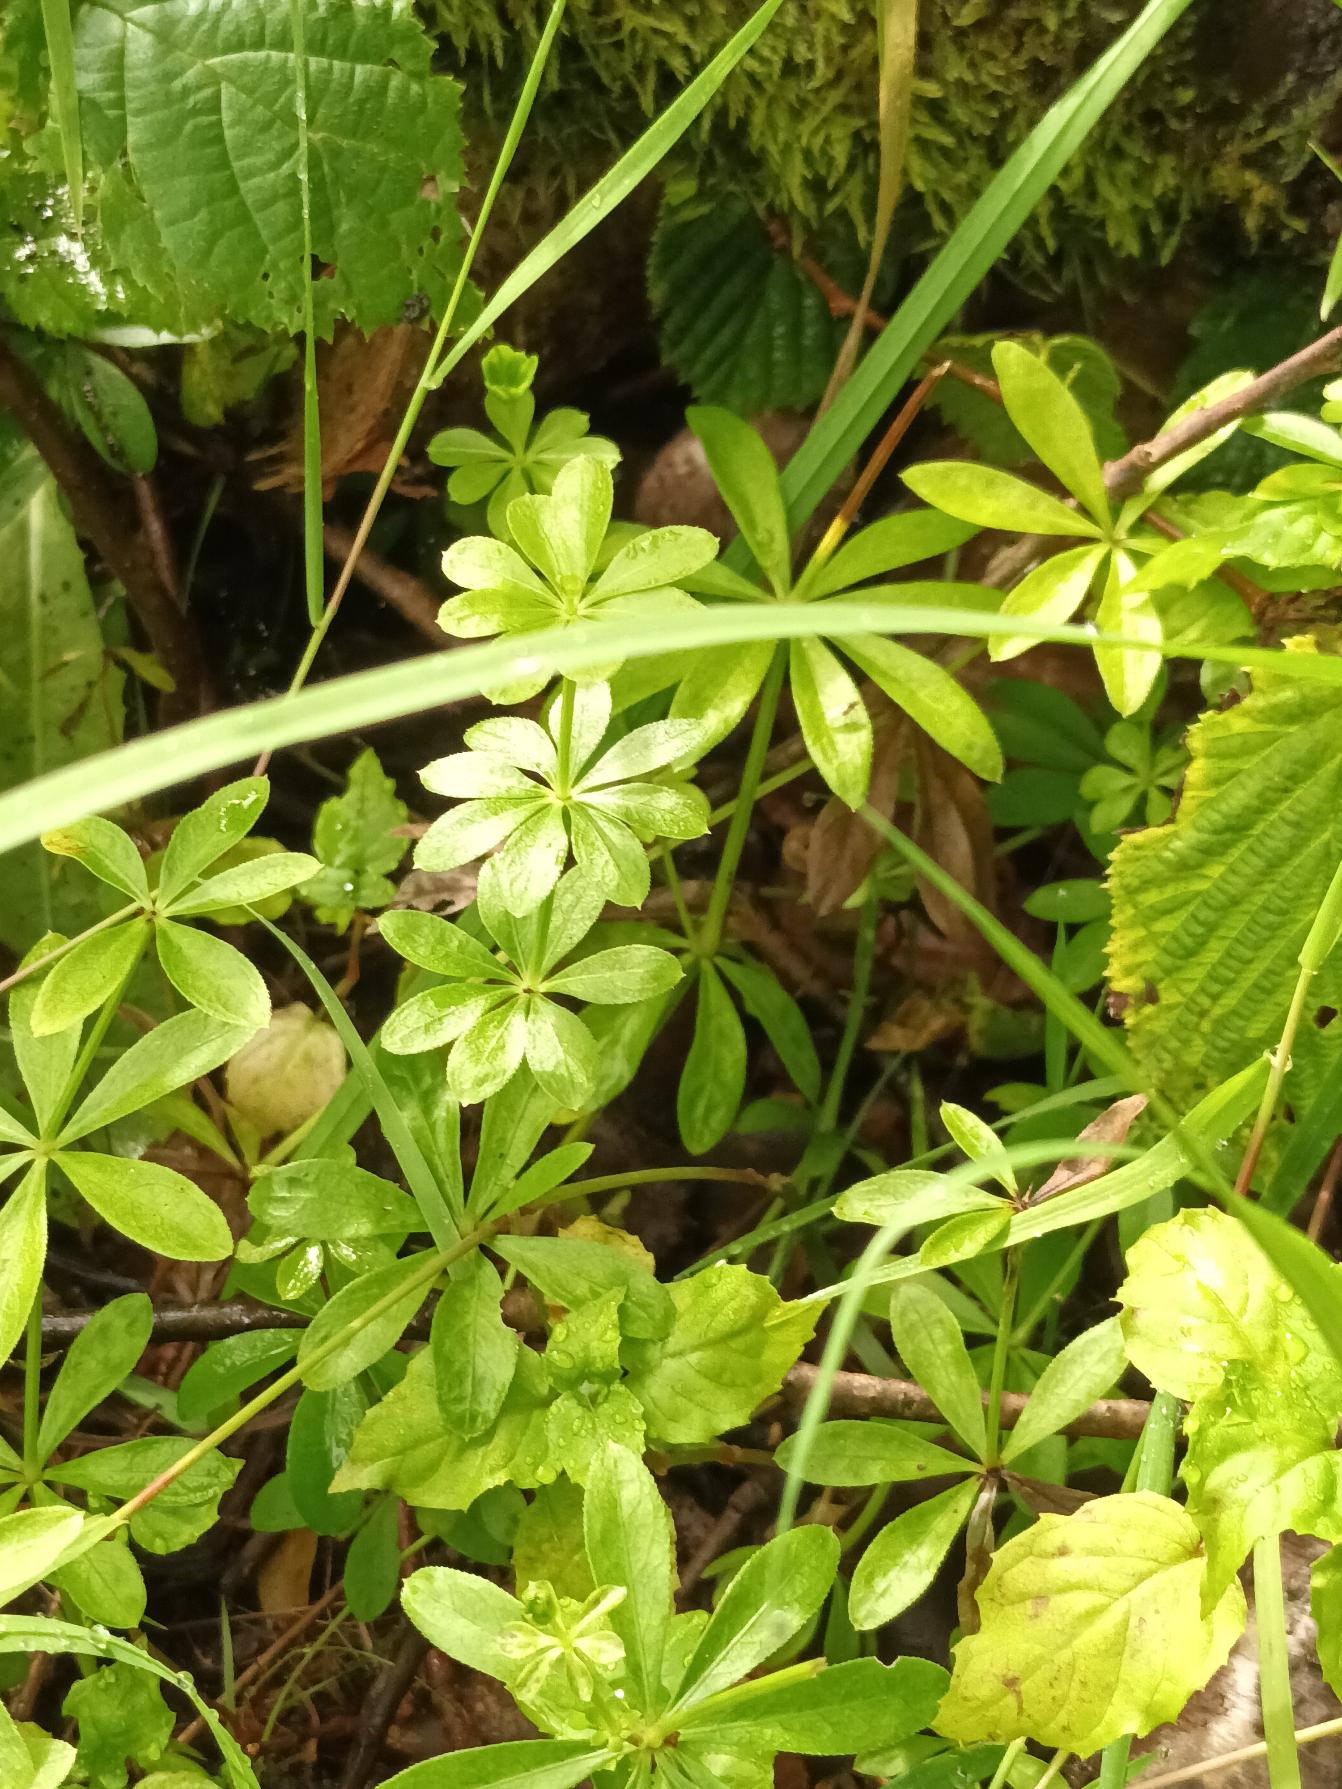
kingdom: Plantae
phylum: Tracheophyta
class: Magnoliopsida
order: Gentianales
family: Rubiaceae
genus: Galium
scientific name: Galium odoratum
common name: Skovmærke
